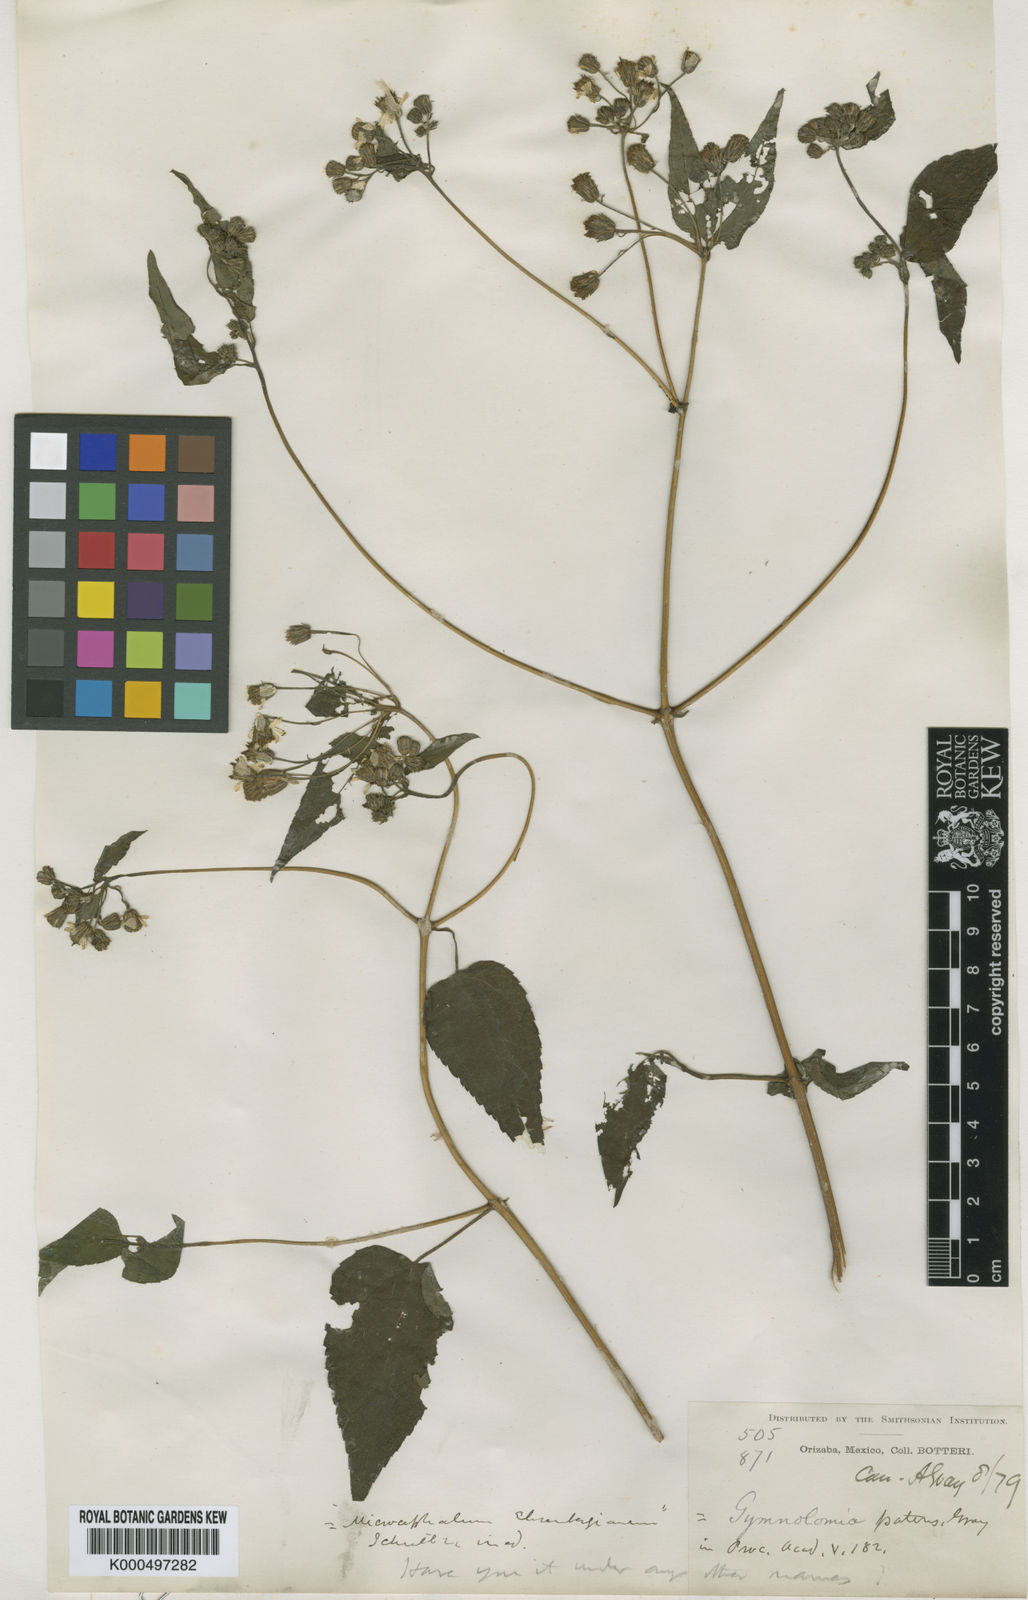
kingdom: Plantae
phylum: Tracheophyta
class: Magnoliopsida
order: Asterales
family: Asteraceae
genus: Hymenostephium
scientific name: Hymenostephium cordatum
